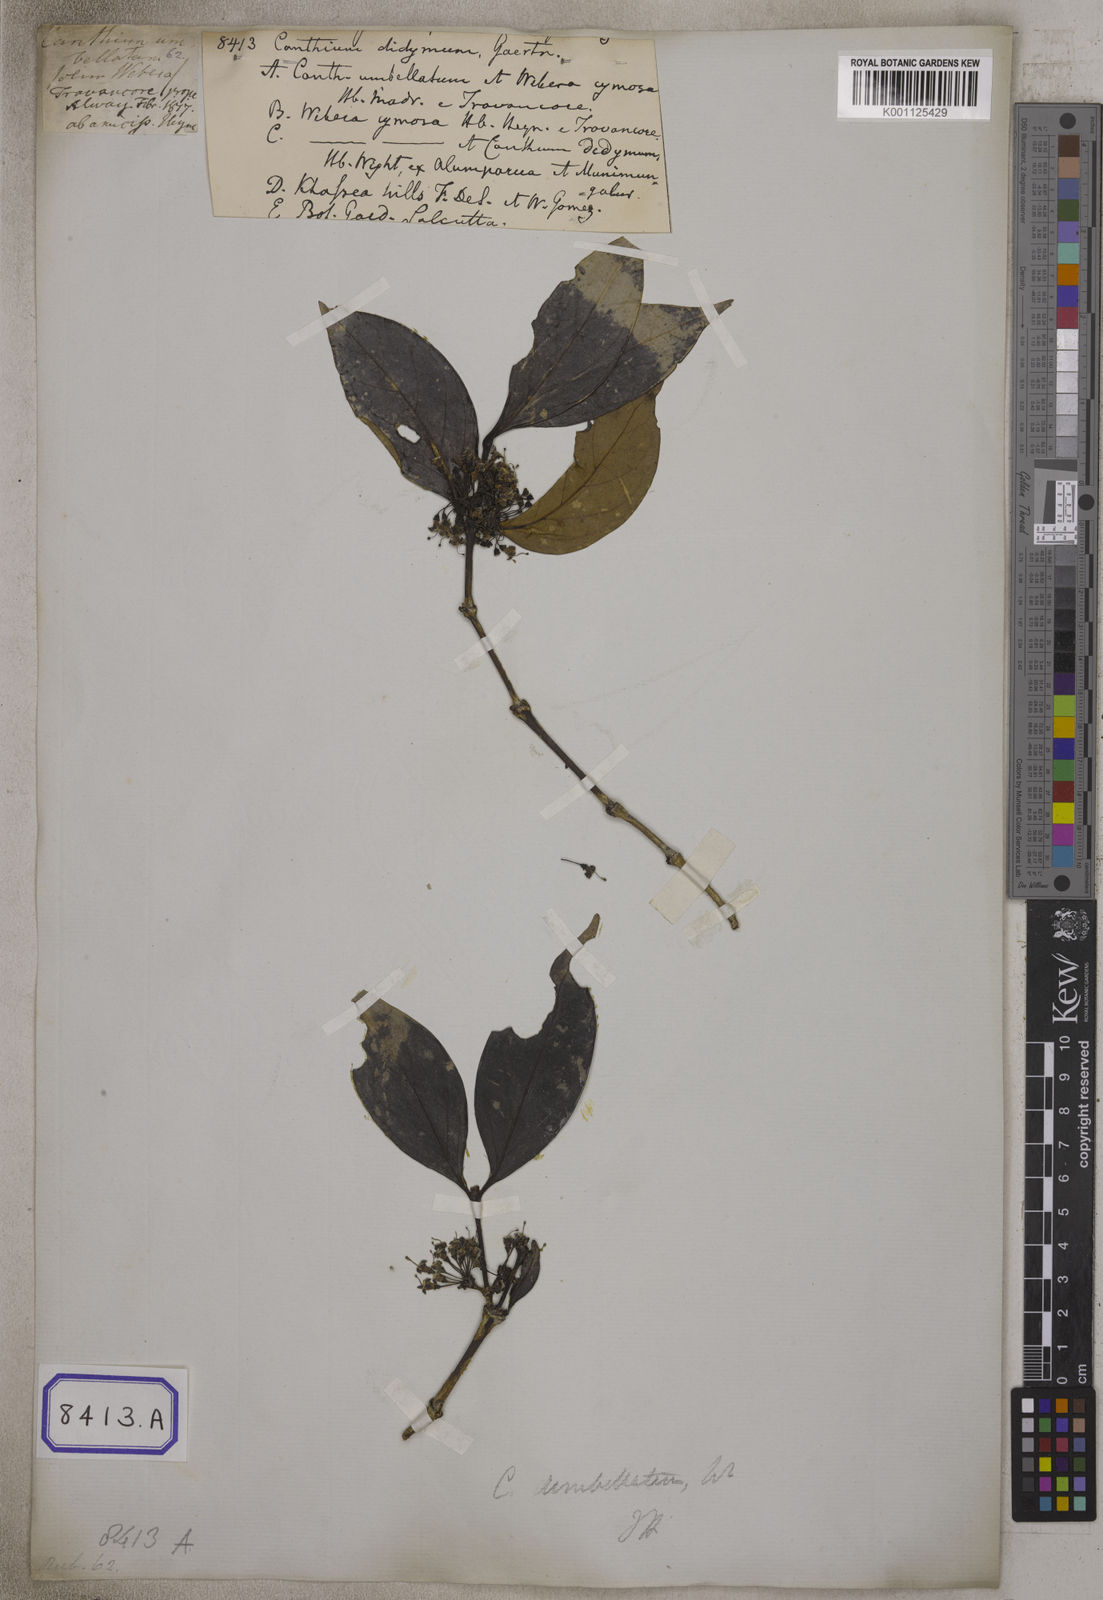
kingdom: Plantae
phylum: Tracheophyta
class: Magnoliopsida
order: Gentianales
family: Rubiaceae
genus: Psydrax
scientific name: Psydrax dicoccos
